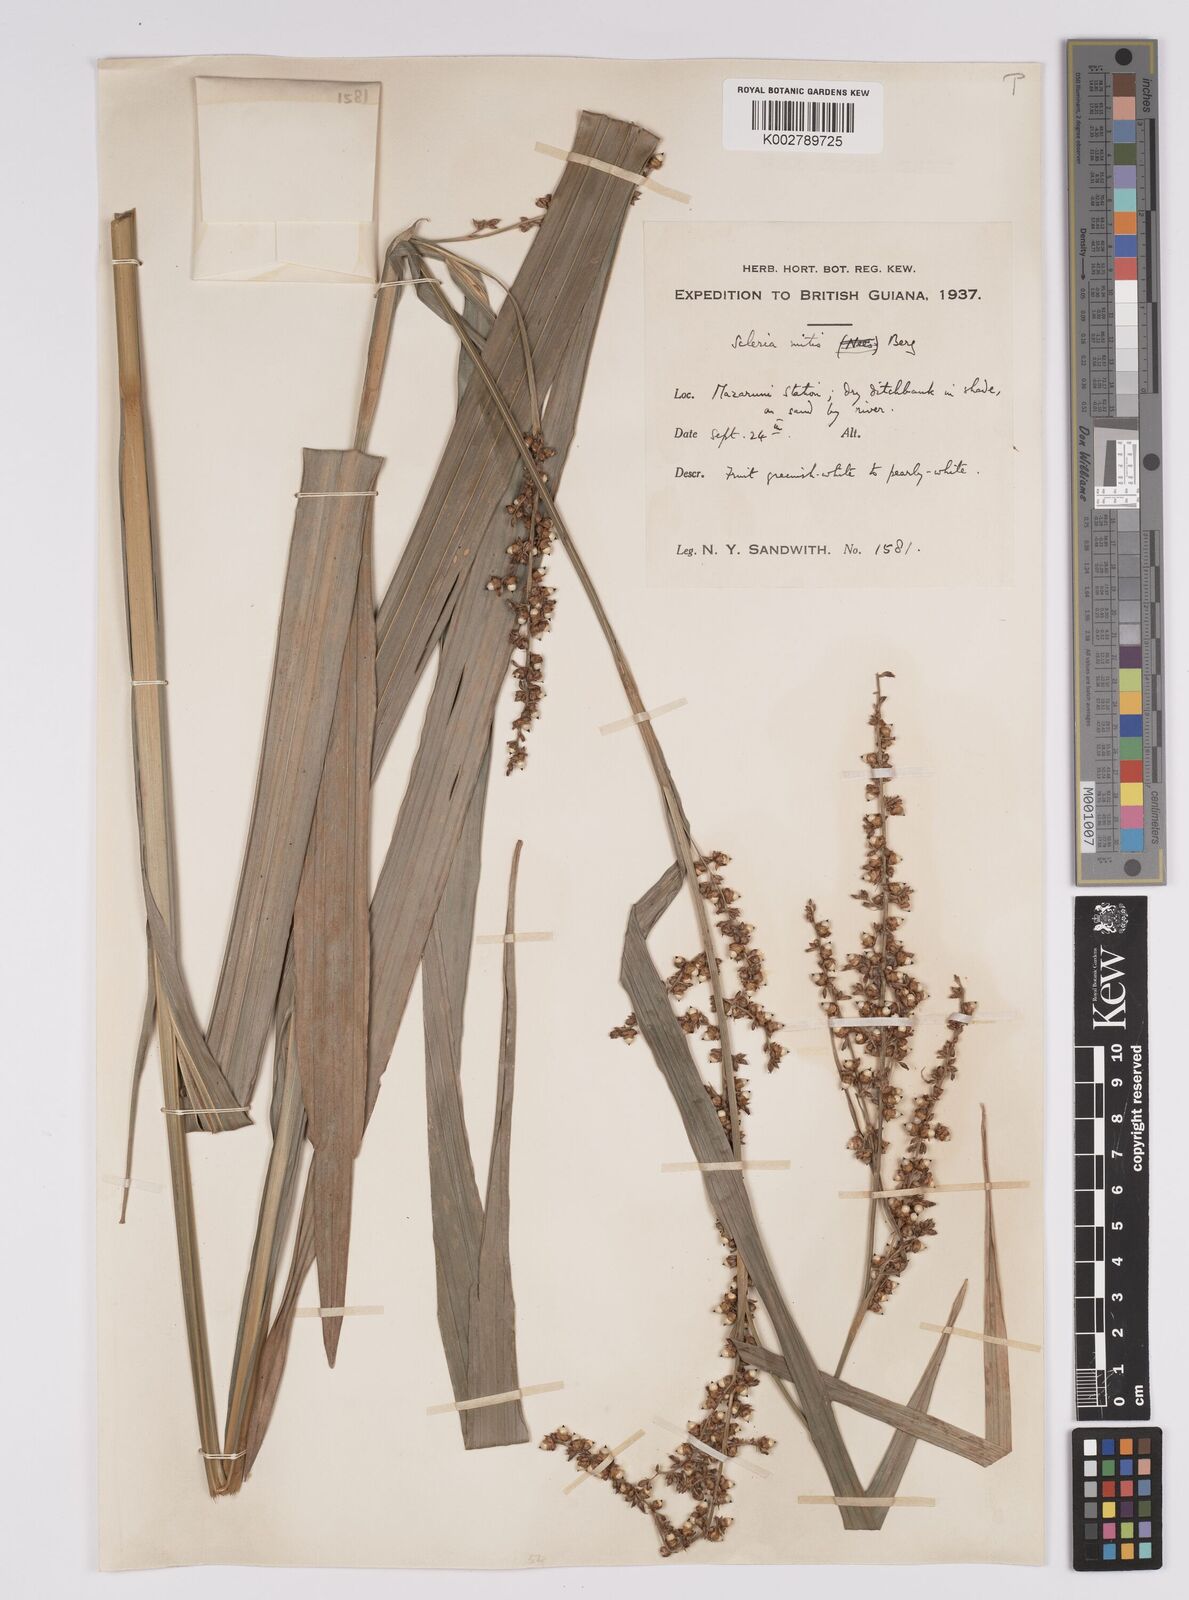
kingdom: Plantae
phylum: Tracheophyta
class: Liliopsida
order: Poales
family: Cyperaceae
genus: Scleria
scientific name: Scleria mitis
